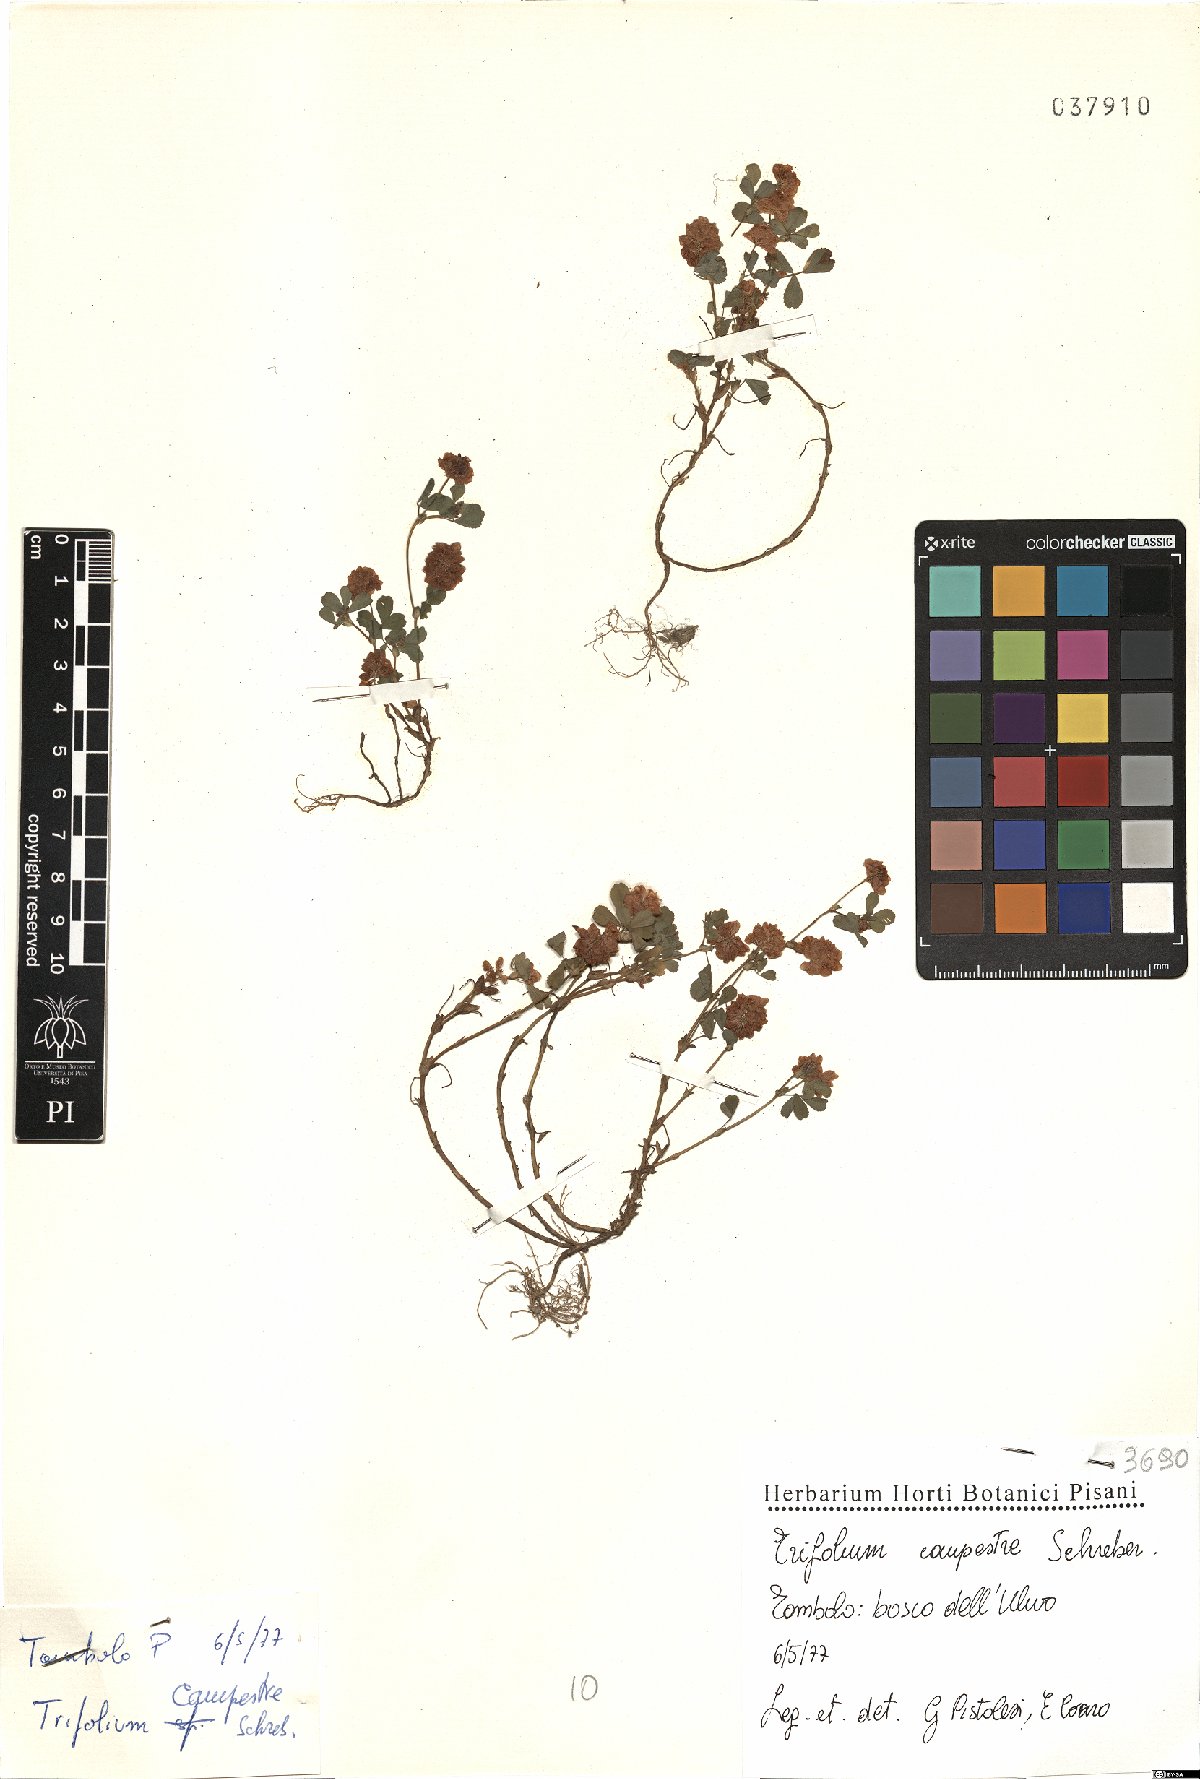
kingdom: Plantae
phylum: Tracheophyta
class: Magnoliopsida
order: Fabales
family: Fabaceae
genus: Trifolium
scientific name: Trifolium campestre
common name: Field clover
